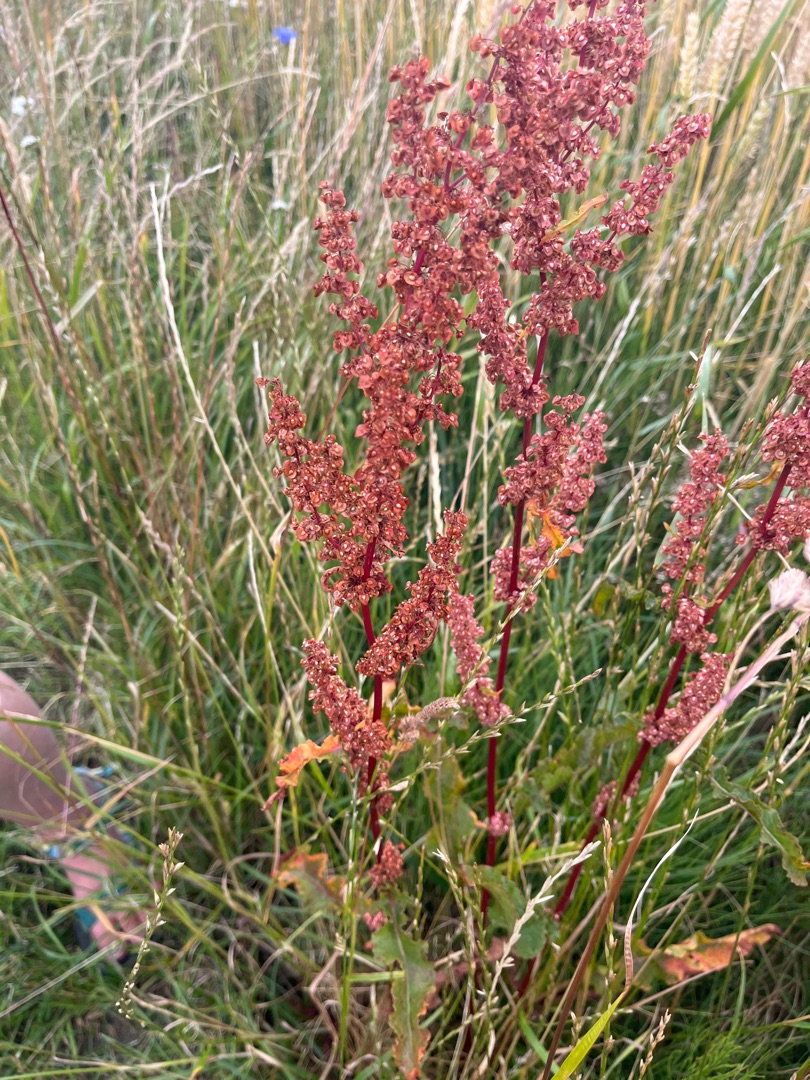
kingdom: Plantae
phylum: Tracheophyta
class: Magnoliopsida
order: Caryophyllales
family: Polygonaceae
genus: Rumex
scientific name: Rumex crispus
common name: Kruset skræppe
